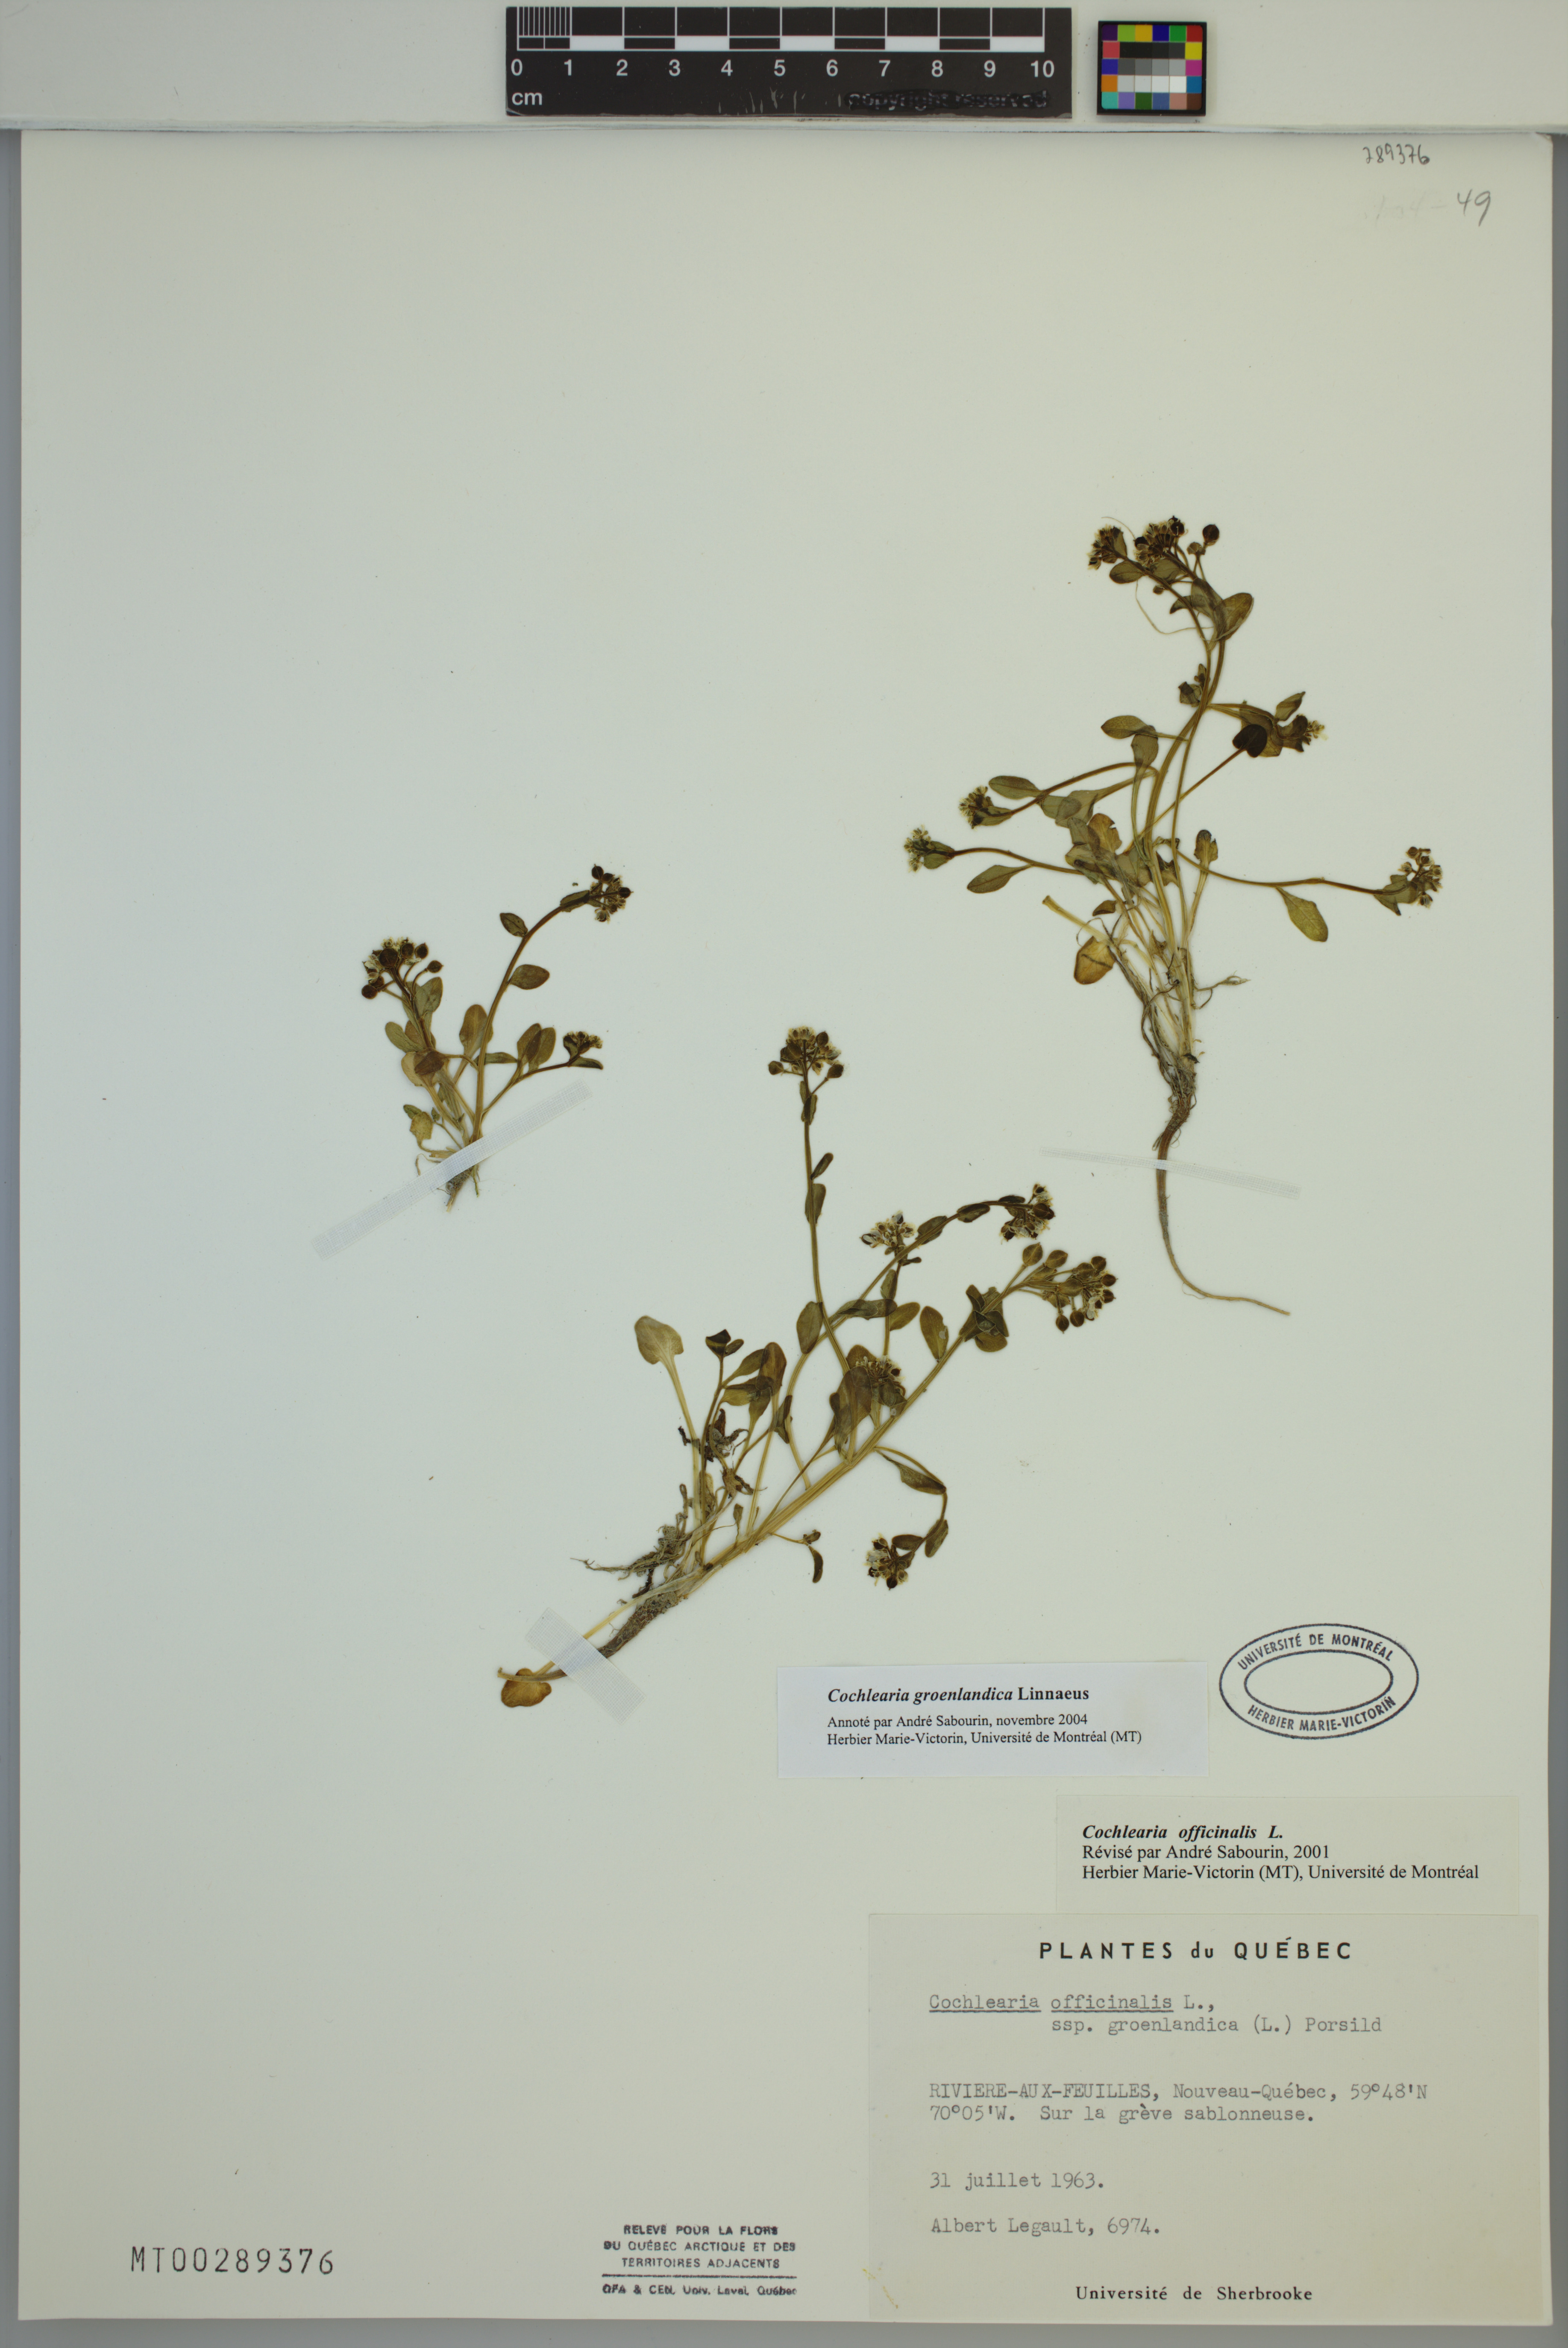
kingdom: Plantae
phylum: Tracheophyta
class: Magnoliopsida
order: Brassicales
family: Brassicaceae
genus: Cochlearia
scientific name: Cochlearia groenlandica
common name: Danish scurvygrass
